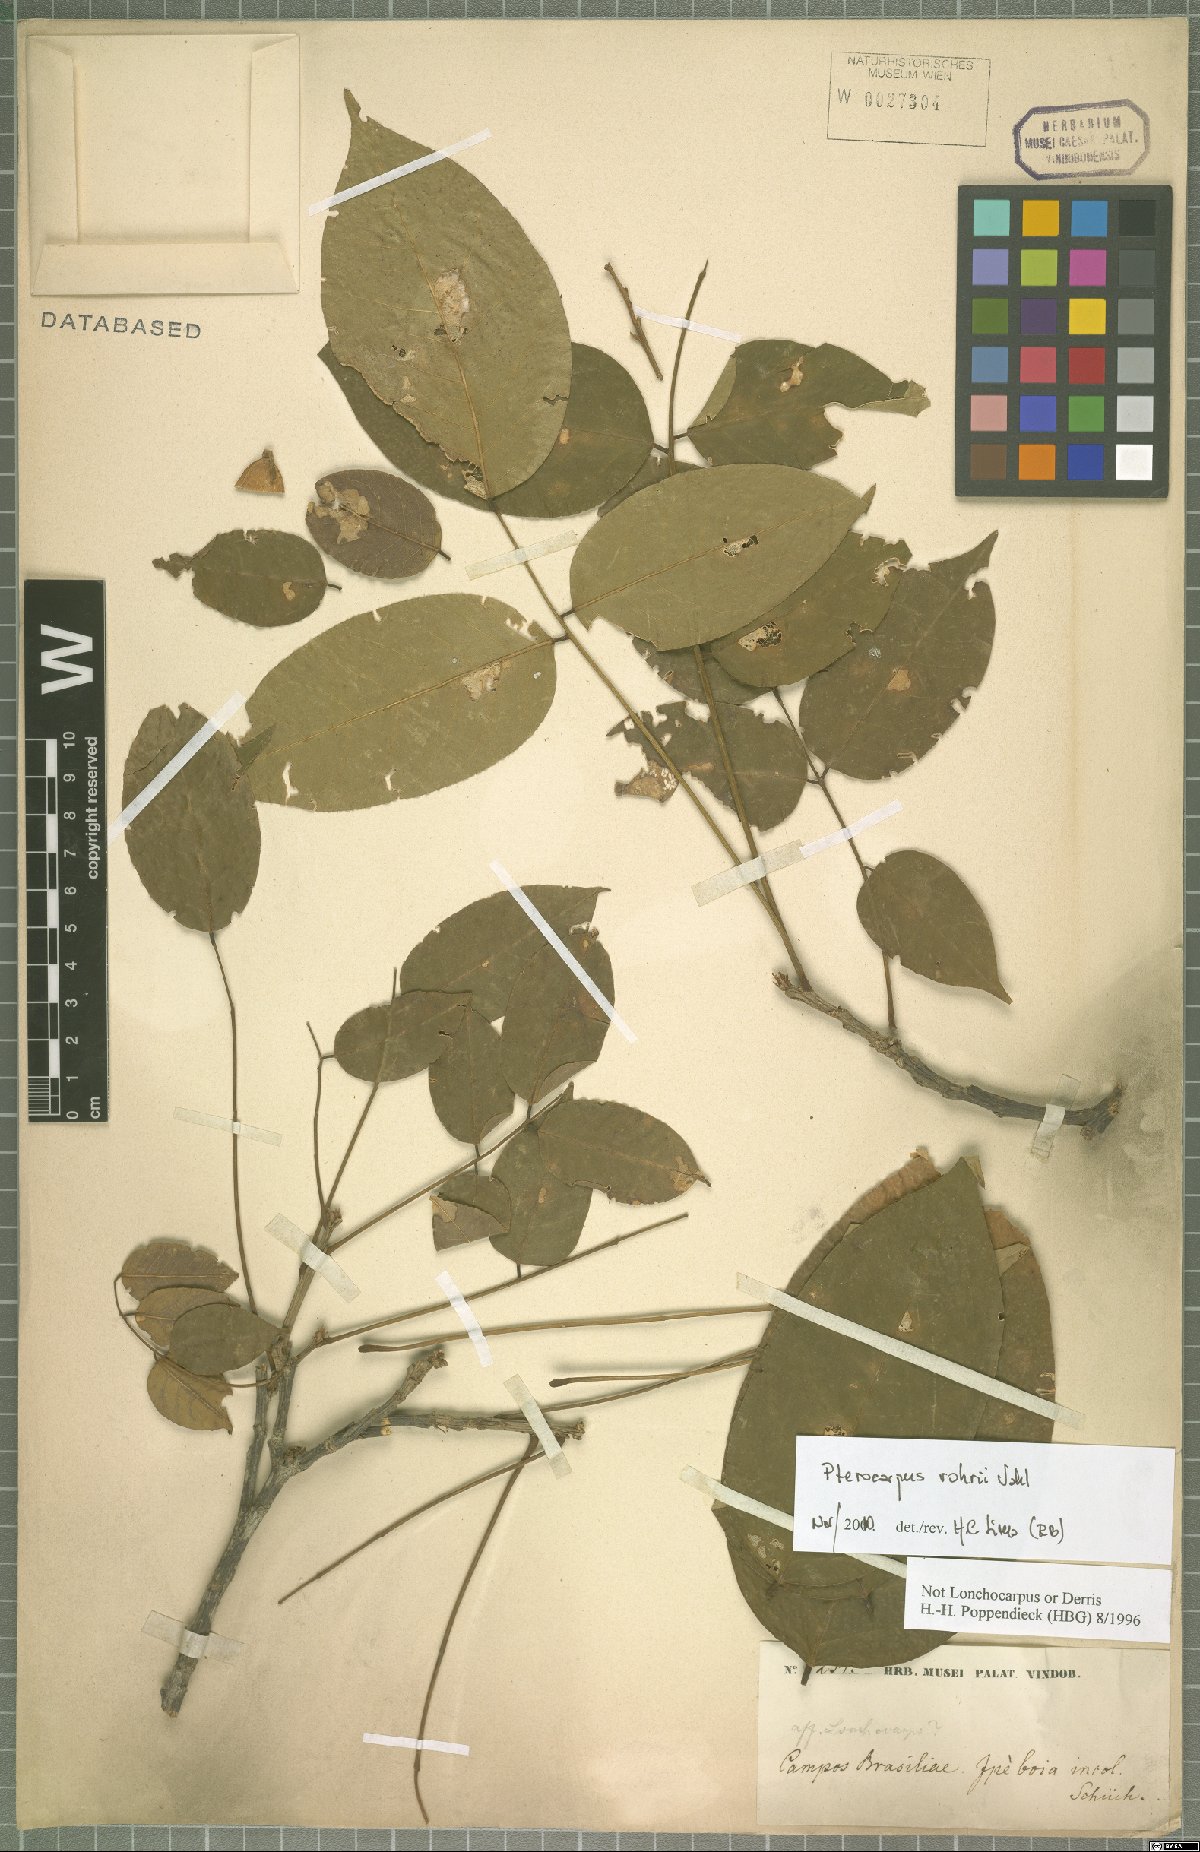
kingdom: Plantae
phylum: Tracheophyta
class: Magnoliopsida
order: Fabales
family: Fabaceae
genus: Pterocarpus
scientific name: Pterocarpus rohrii
